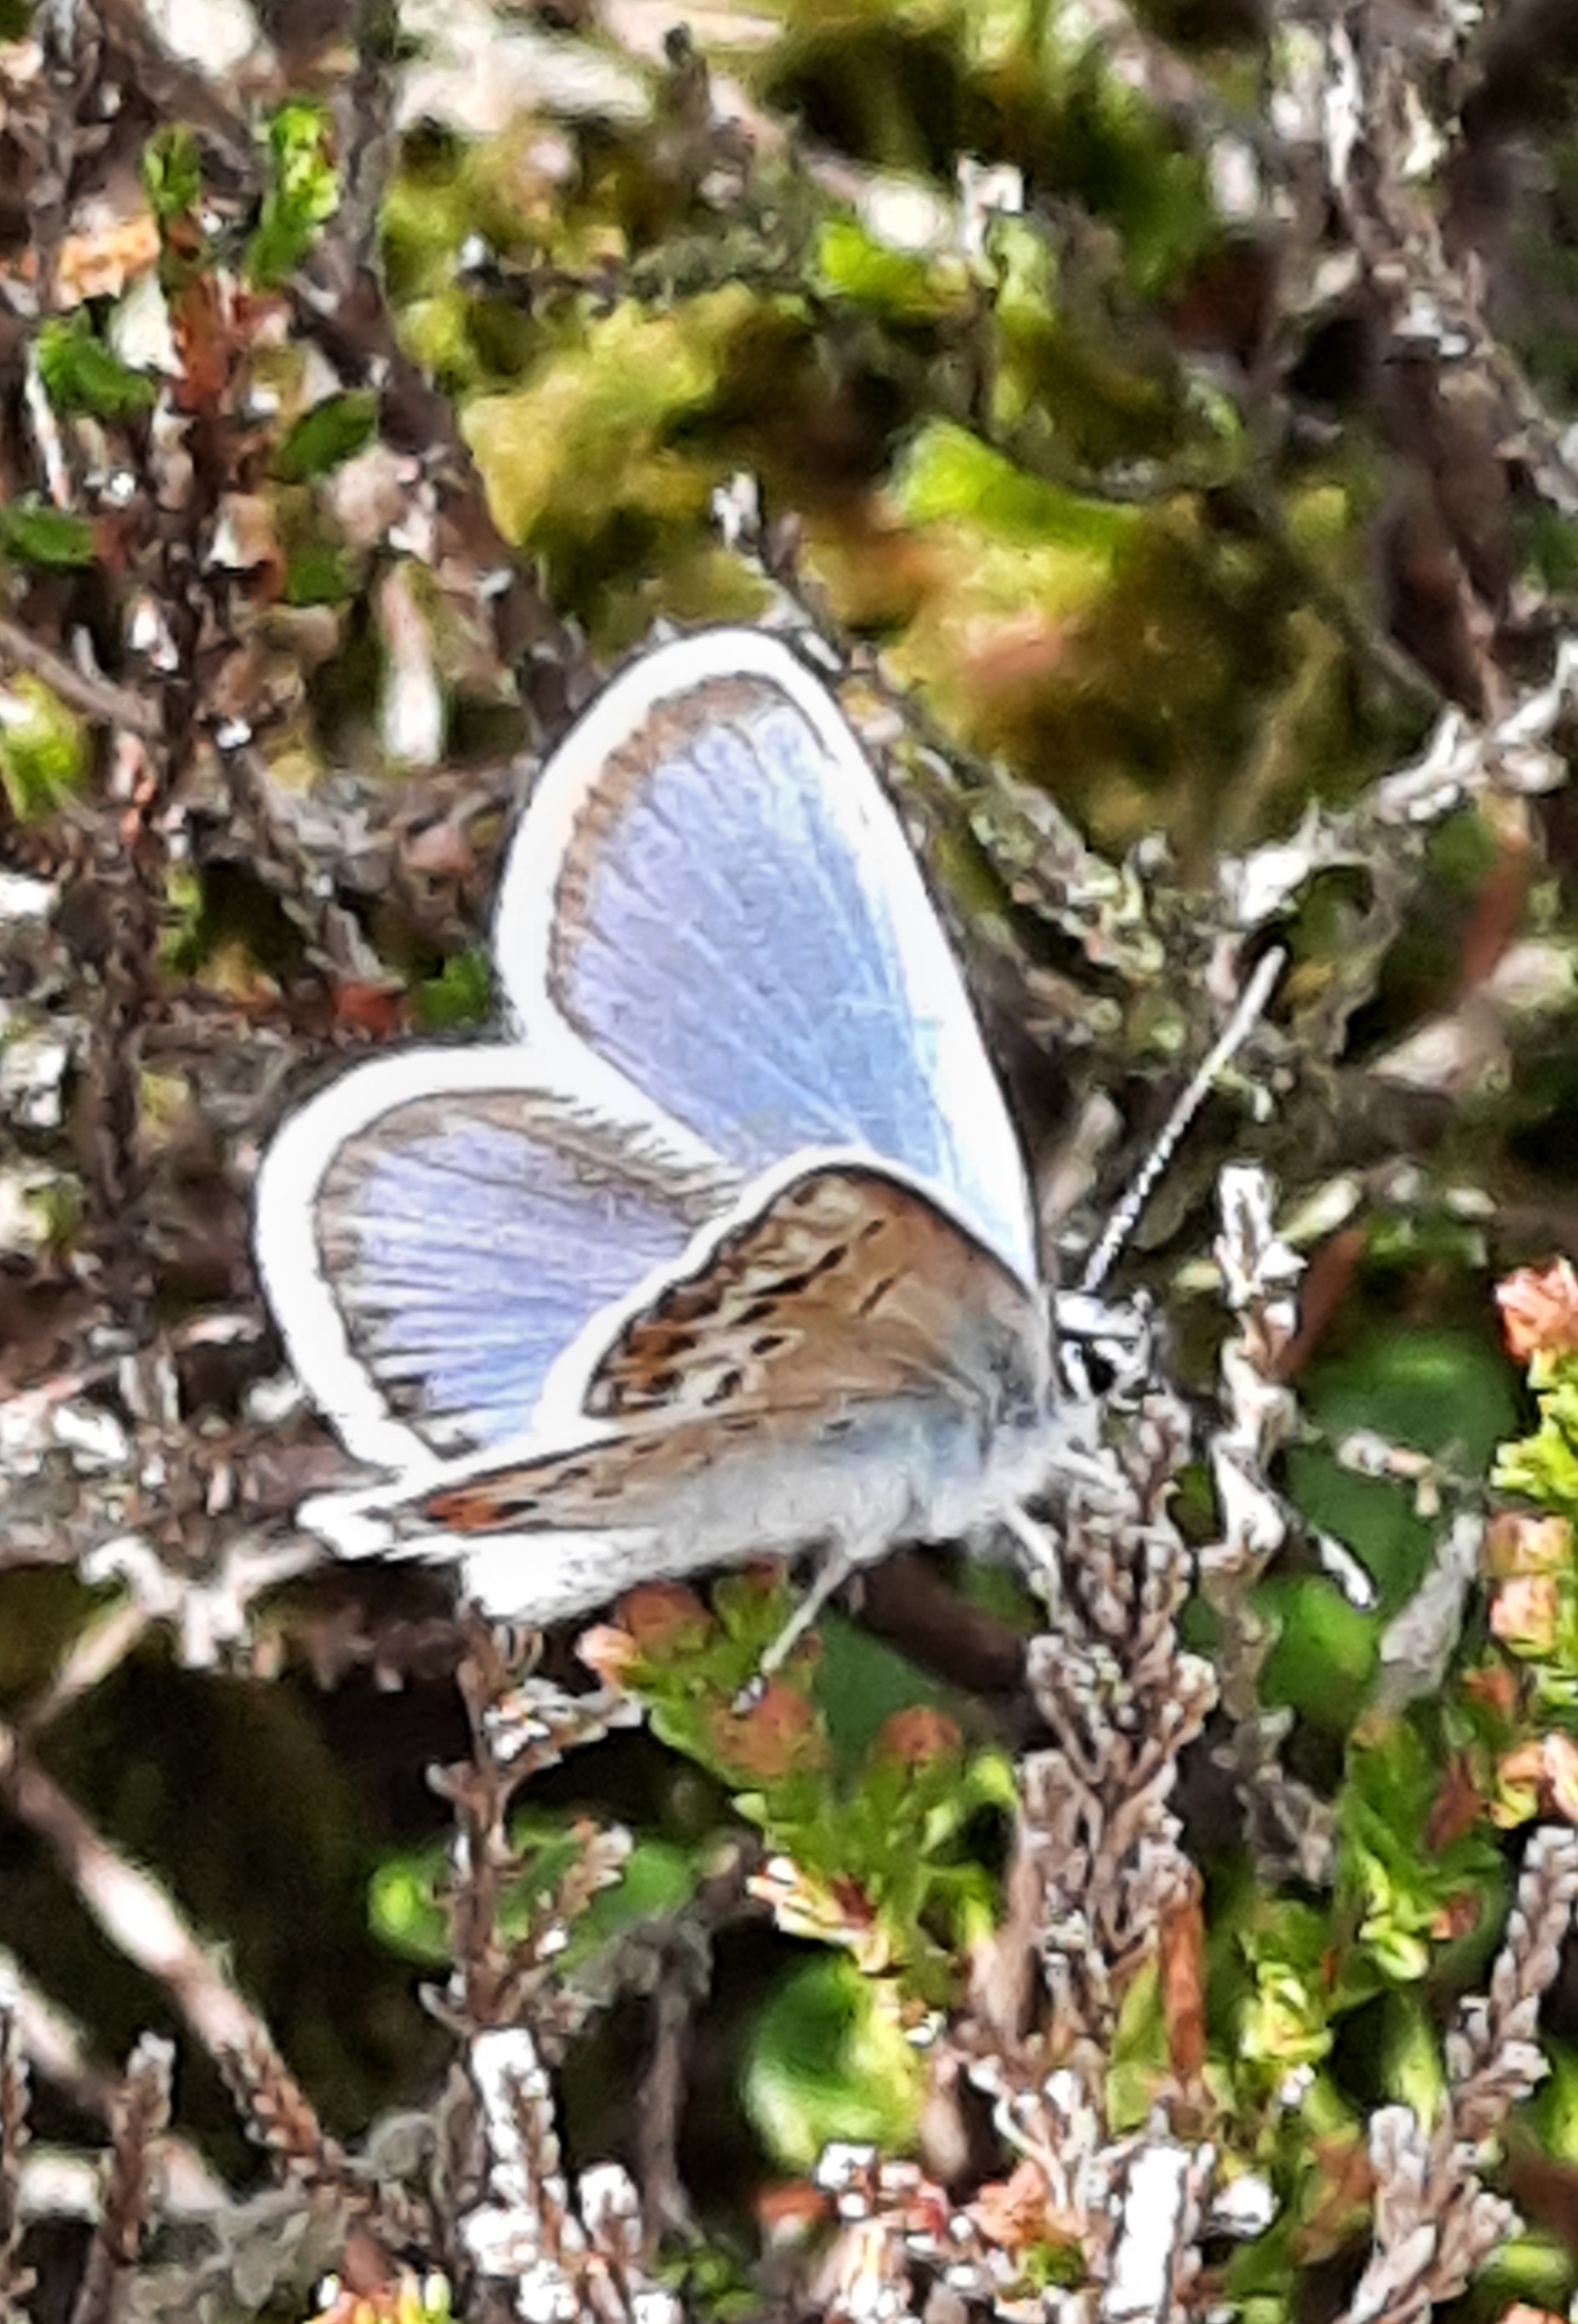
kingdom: Animalia
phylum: Arthropoda
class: Insecta
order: Lepidoptera
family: Lycaenidae
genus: Plebejus
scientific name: Plebejus argus
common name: Argusblåfugl
